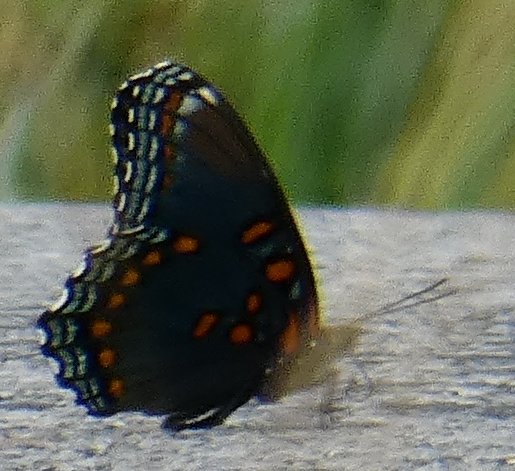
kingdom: Animalia
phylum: Arthropoda
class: Insecta
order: Lepidoptera
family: Nymphalidae
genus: Limenitis
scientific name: Limenitis astyanax
